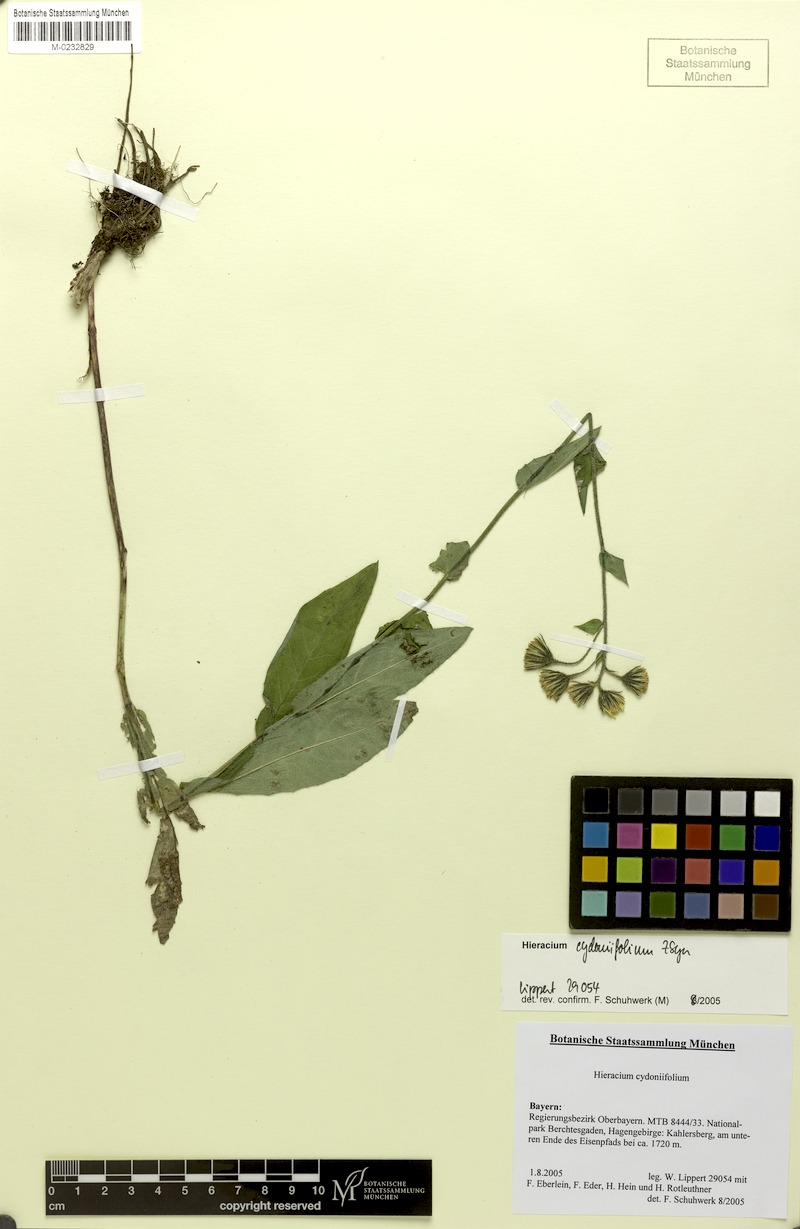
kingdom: Plantae
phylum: Tracheophyta
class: Magnoliopsida
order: Asterales
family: Asteraceae
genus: Hieracium
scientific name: Hieracium cydoniifolium
